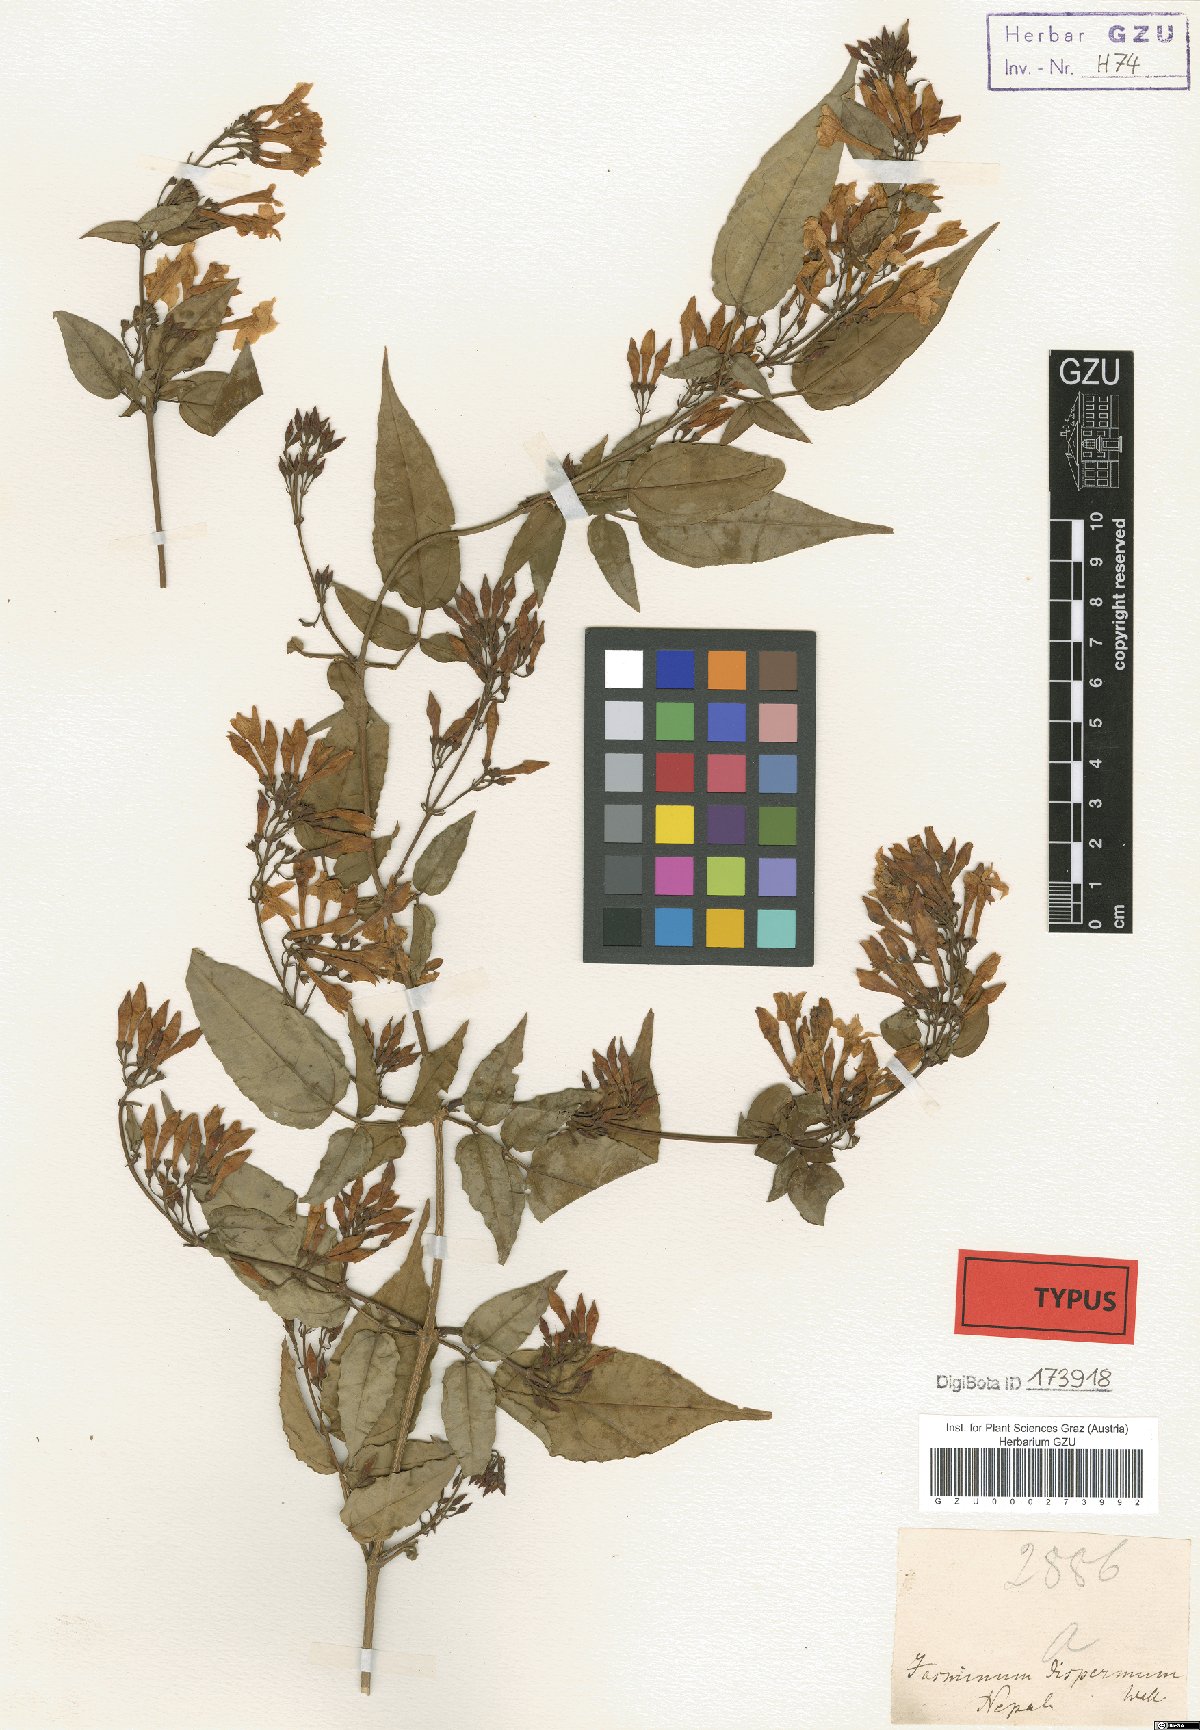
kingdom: Plantae
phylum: Tracheophyta
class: Magnoliopsida
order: Lamiales
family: Oleaceae
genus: Jasminum
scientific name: Jasminum dispermum
